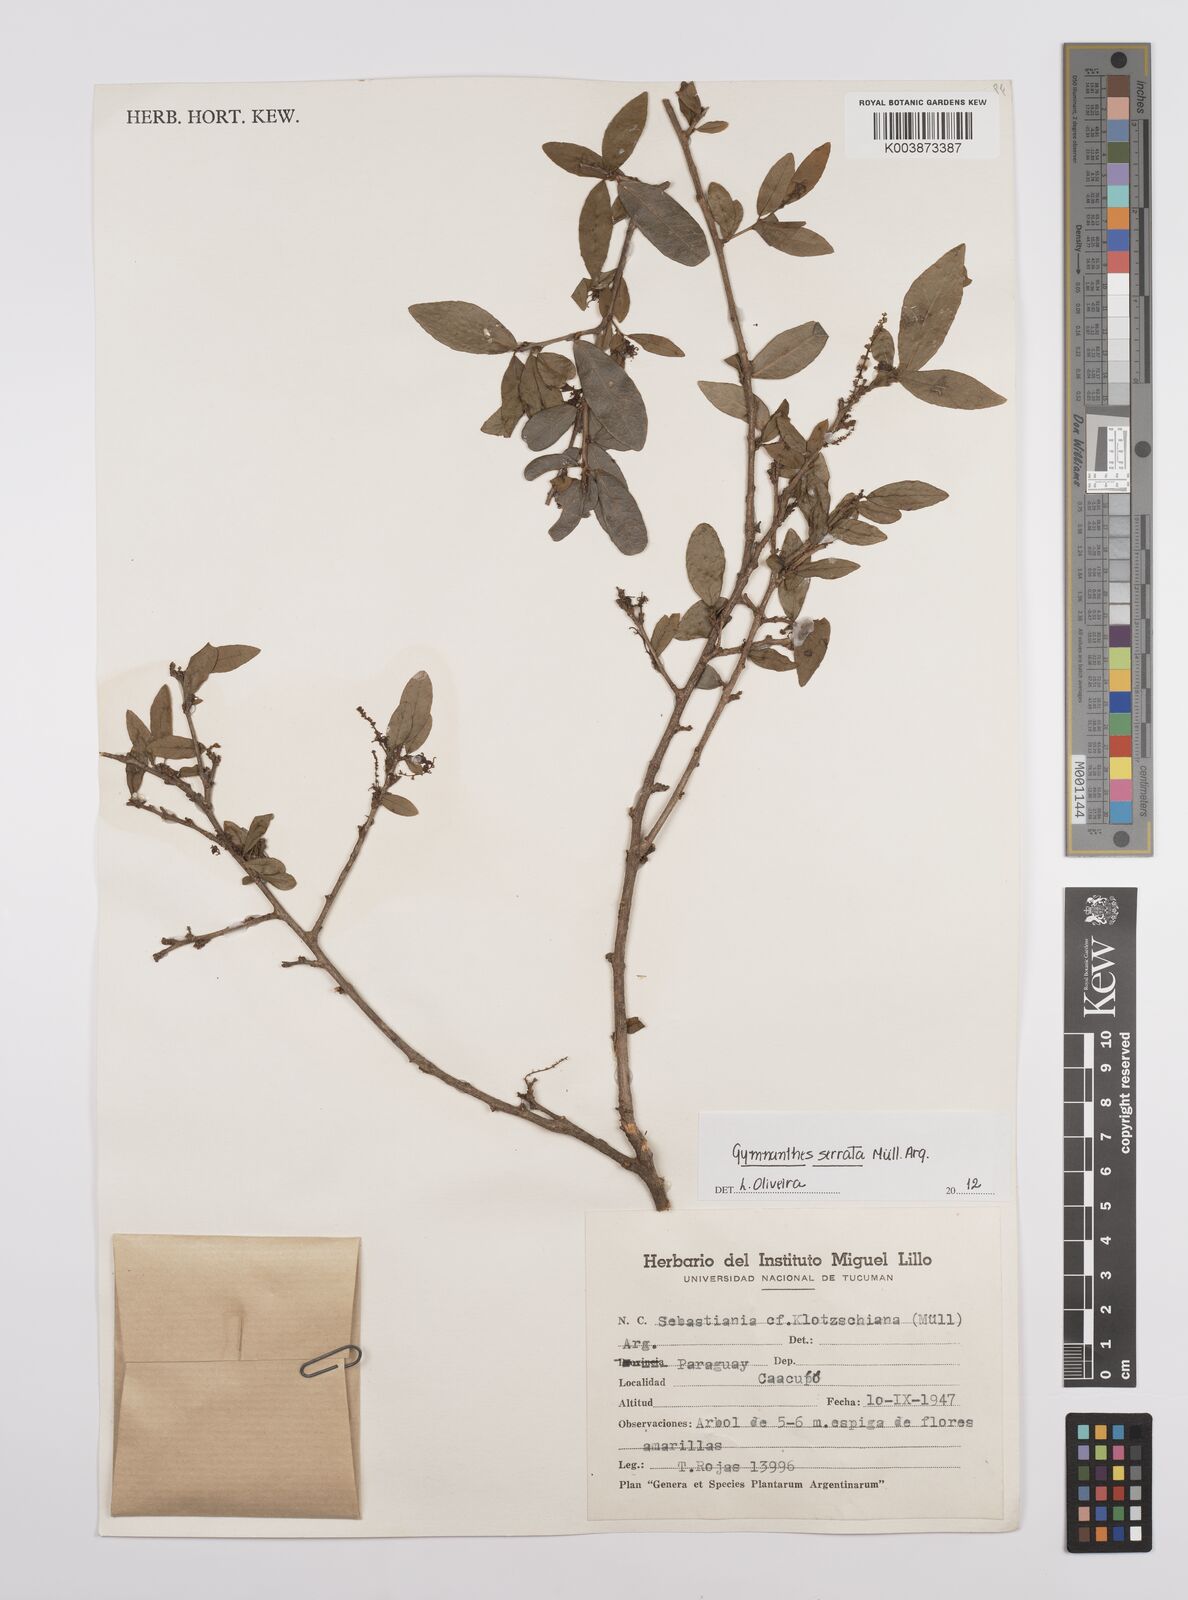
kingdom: Plantae
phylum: Tracheophyta
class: Magnoliopsida
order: Malpighiales
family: Euphorbiaceae
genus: Sebastiania
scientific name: Sebastiania serrata
